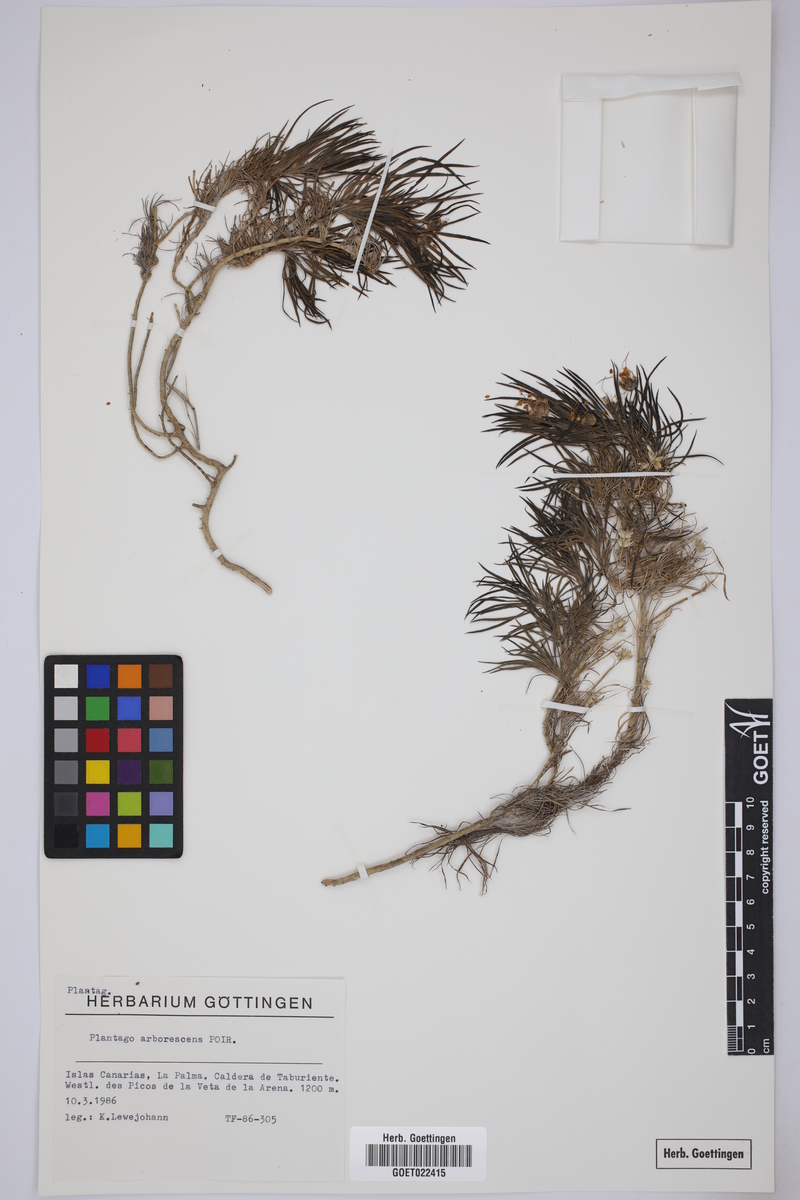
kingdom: Plantae
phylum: Tracheophyta
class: Magnoliopsida
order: Lamiales
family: Plantaginaceae
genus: Plantago
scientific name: Plantago arborescens
